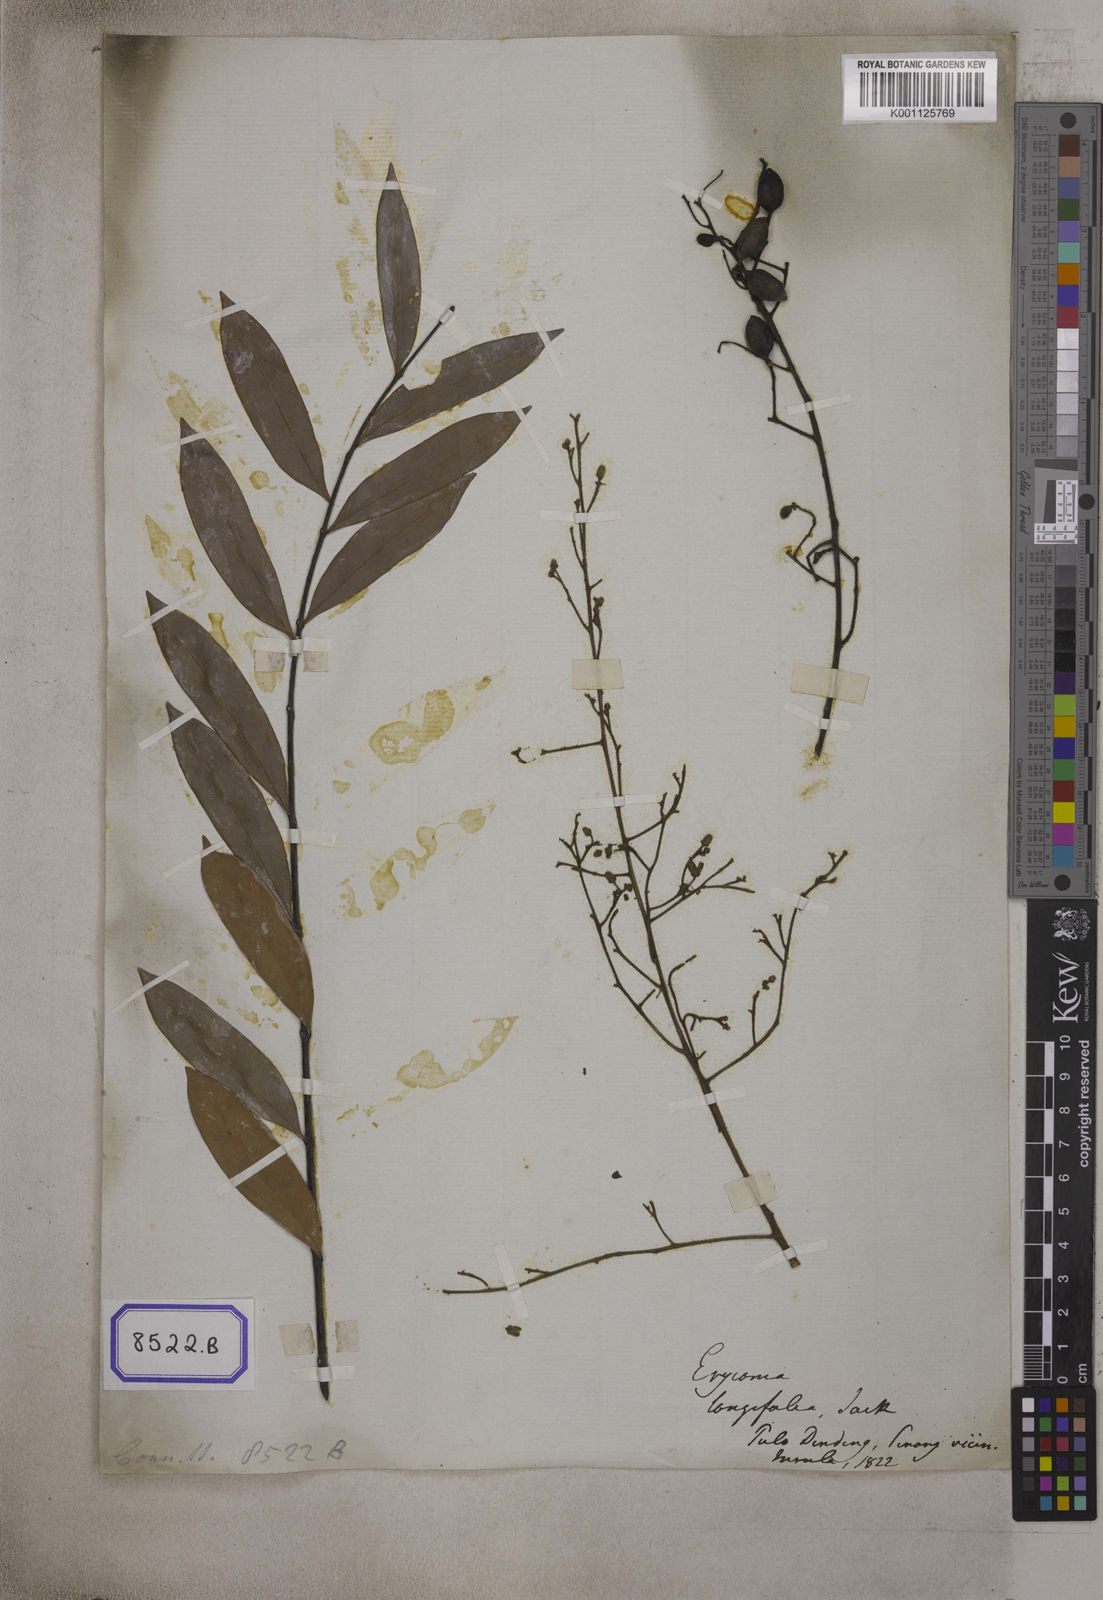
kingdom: Plantae
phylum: Tracheophyta
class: Magnoliopsida
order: Sapindales
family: Simaroubaceae
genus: Eurycoma
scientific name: Eurycoma longifolia
